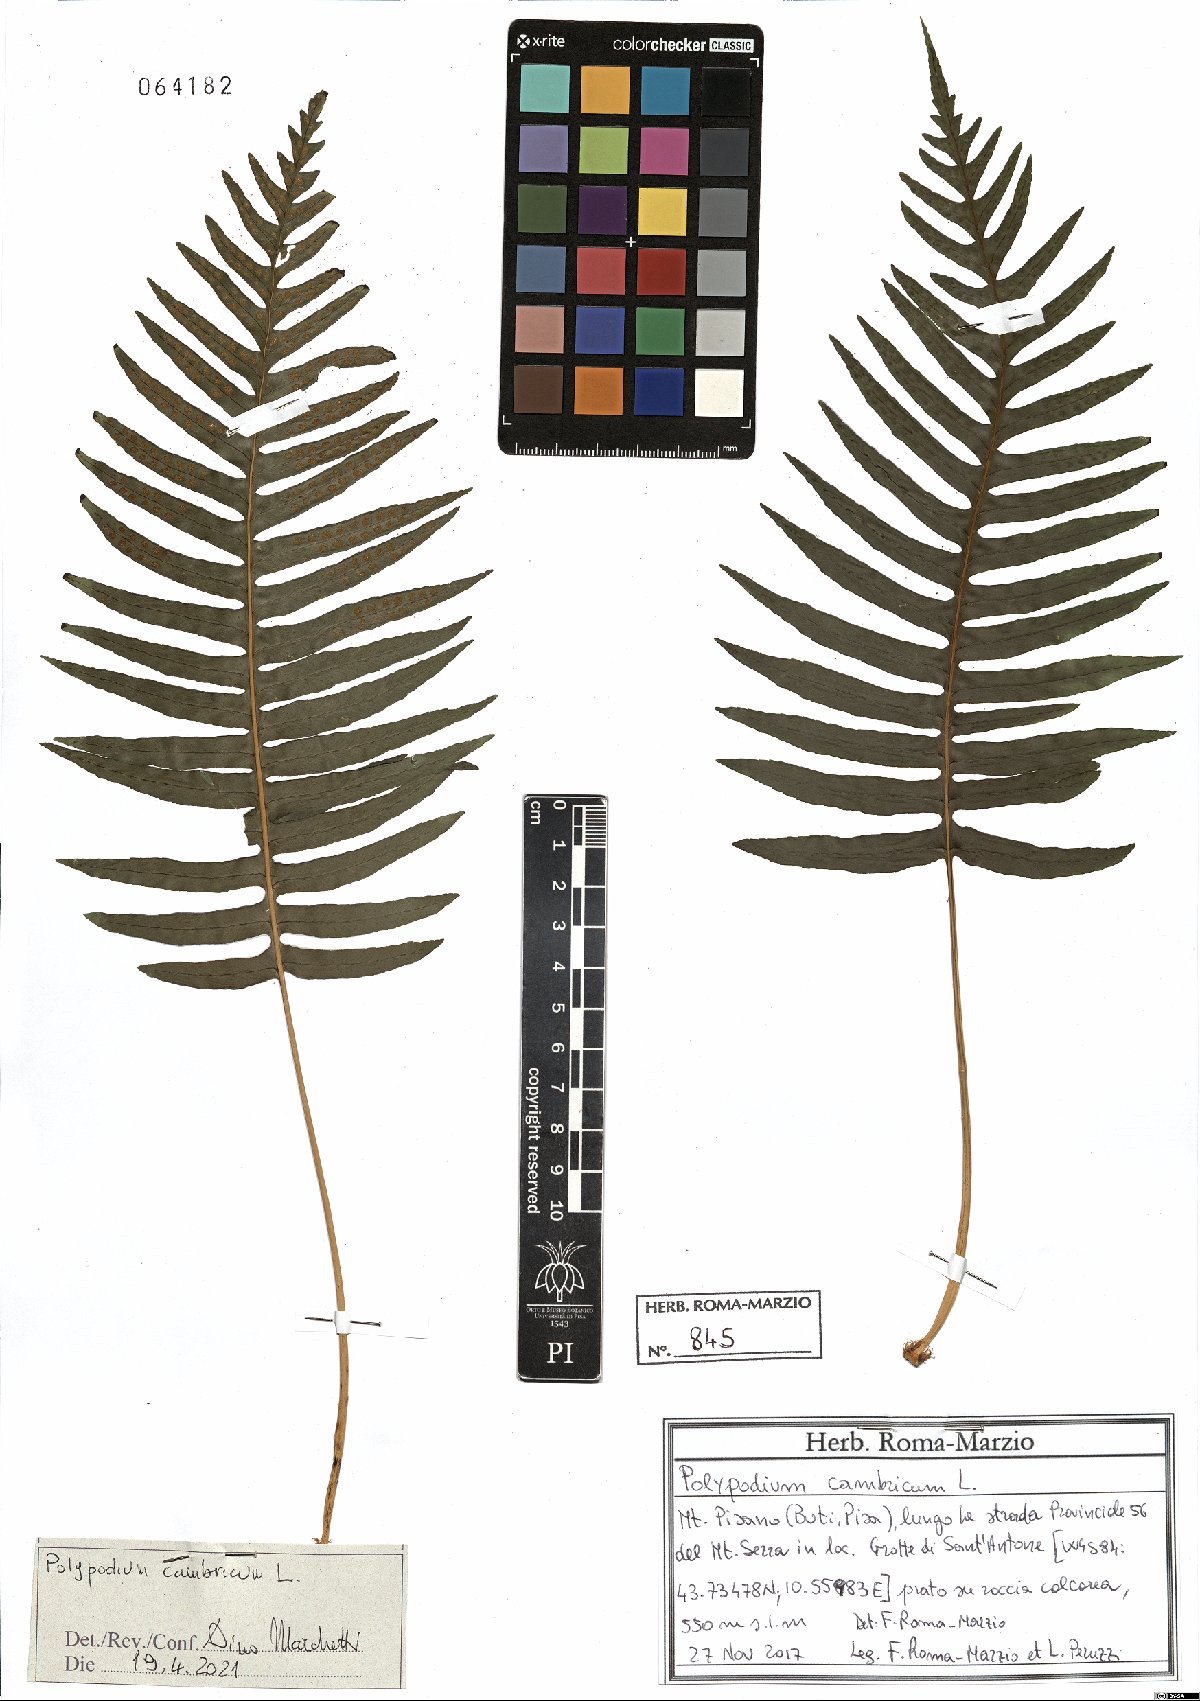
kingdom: Plantae
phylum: Tracheophyta
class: Polypodiopsida
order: Polypodiales
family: Polypodiaceae
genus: Polypodium
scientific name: Polypodium cambricum
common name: Southern polypody
